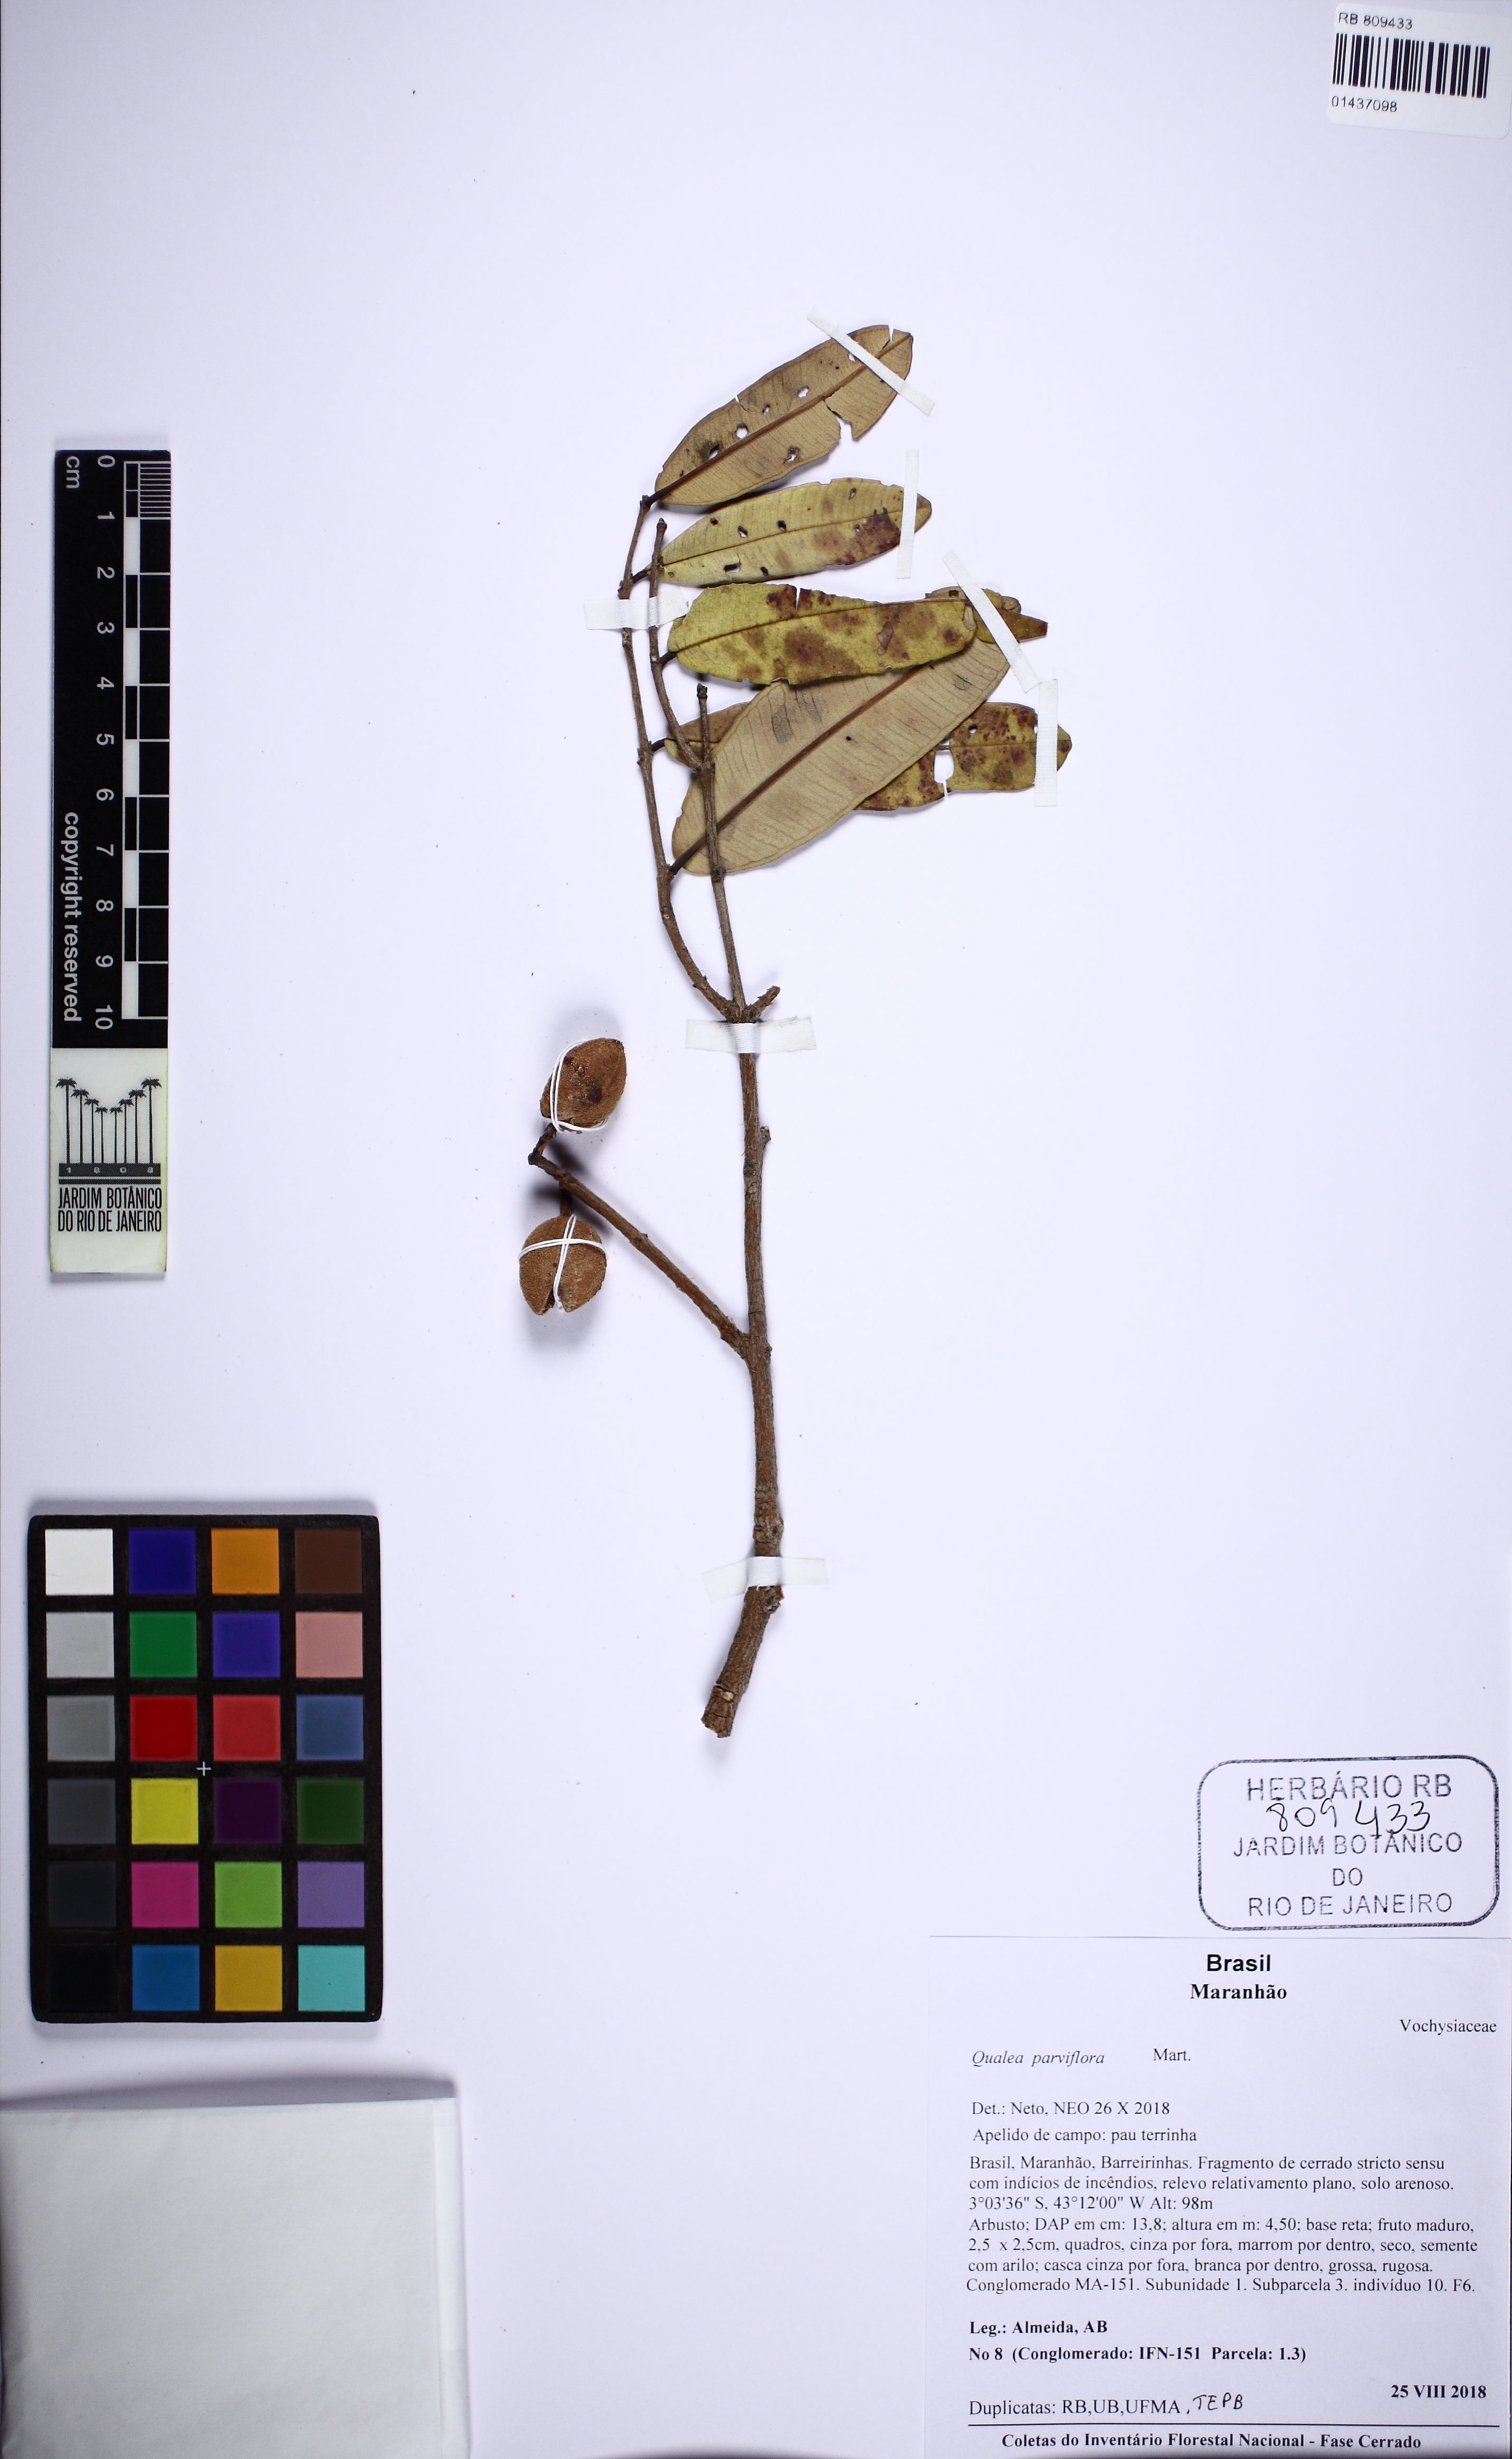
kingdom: Plantae
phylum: Tracheophyta
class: Magnoliopsida
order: Myrtales
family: Vochysiaceae
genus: Qualea
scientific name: Qualea parviflora
